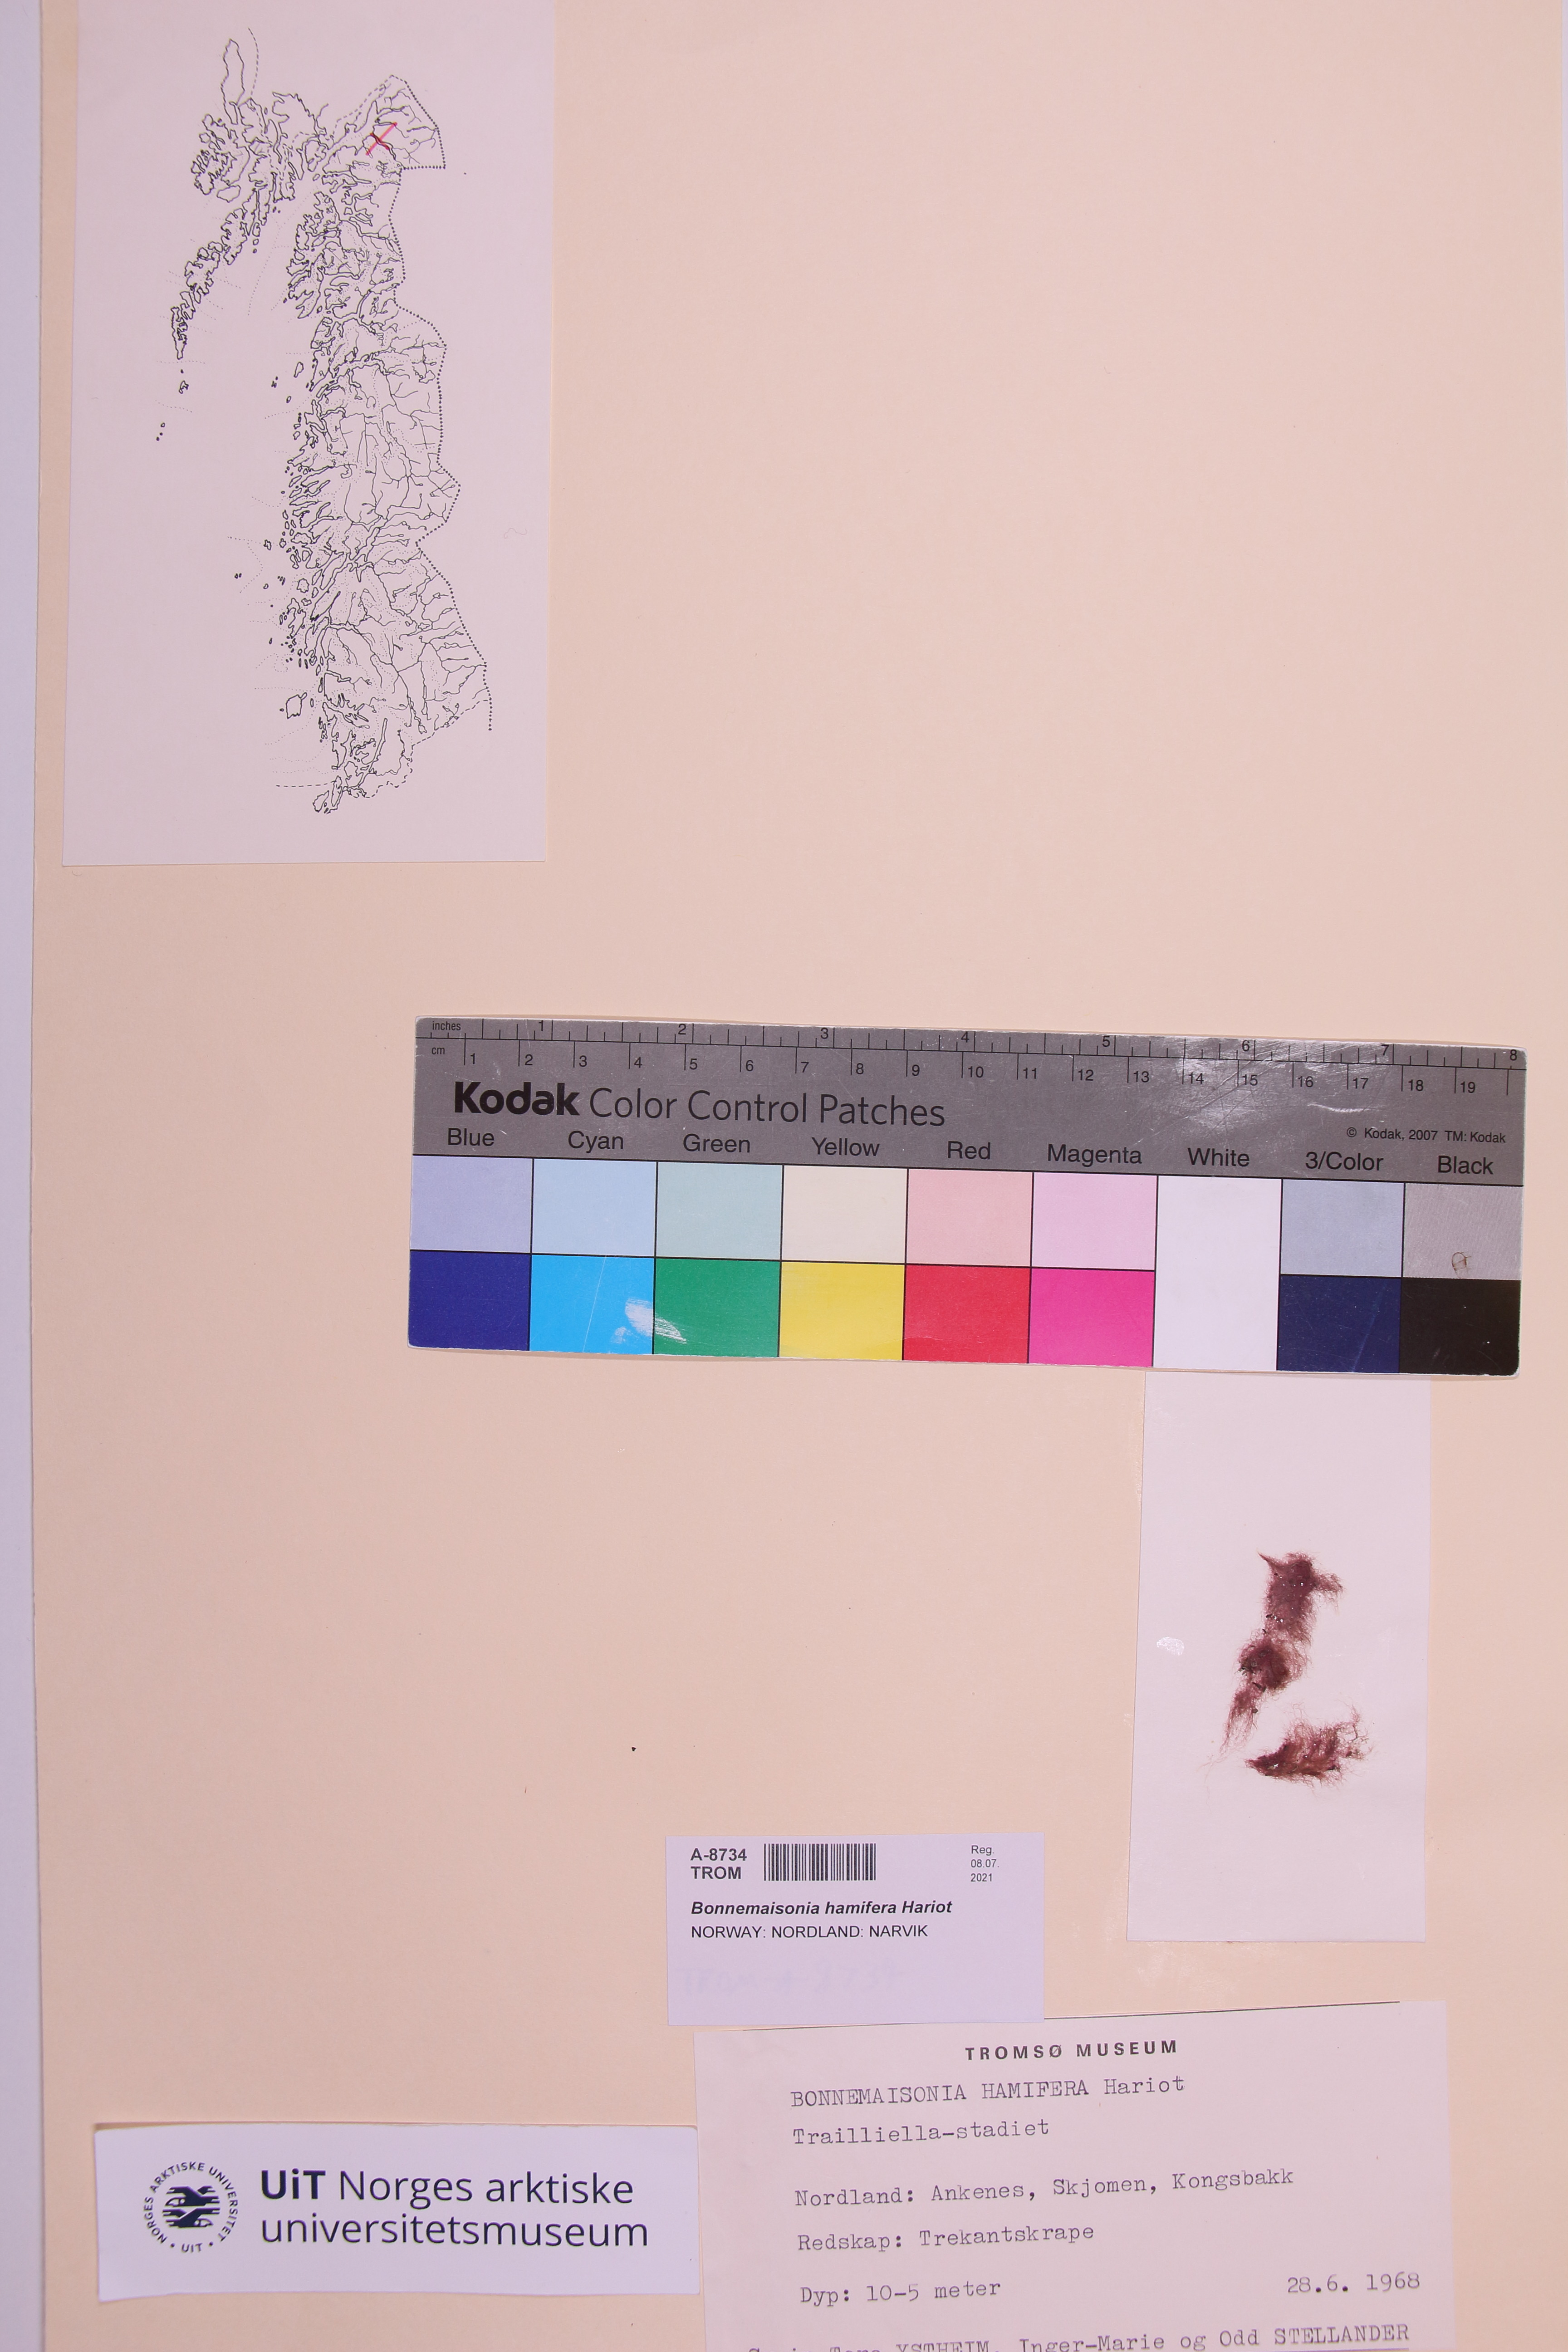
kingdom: Plantae
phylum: Rhodophyta
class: Florideophyceae
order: Bonnemaisoniales
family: Bonnemaisoniaceae
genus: Bonnemaisonia
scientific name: Bonnemaisonia hamifera
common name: Bonnemaison's hook weed
